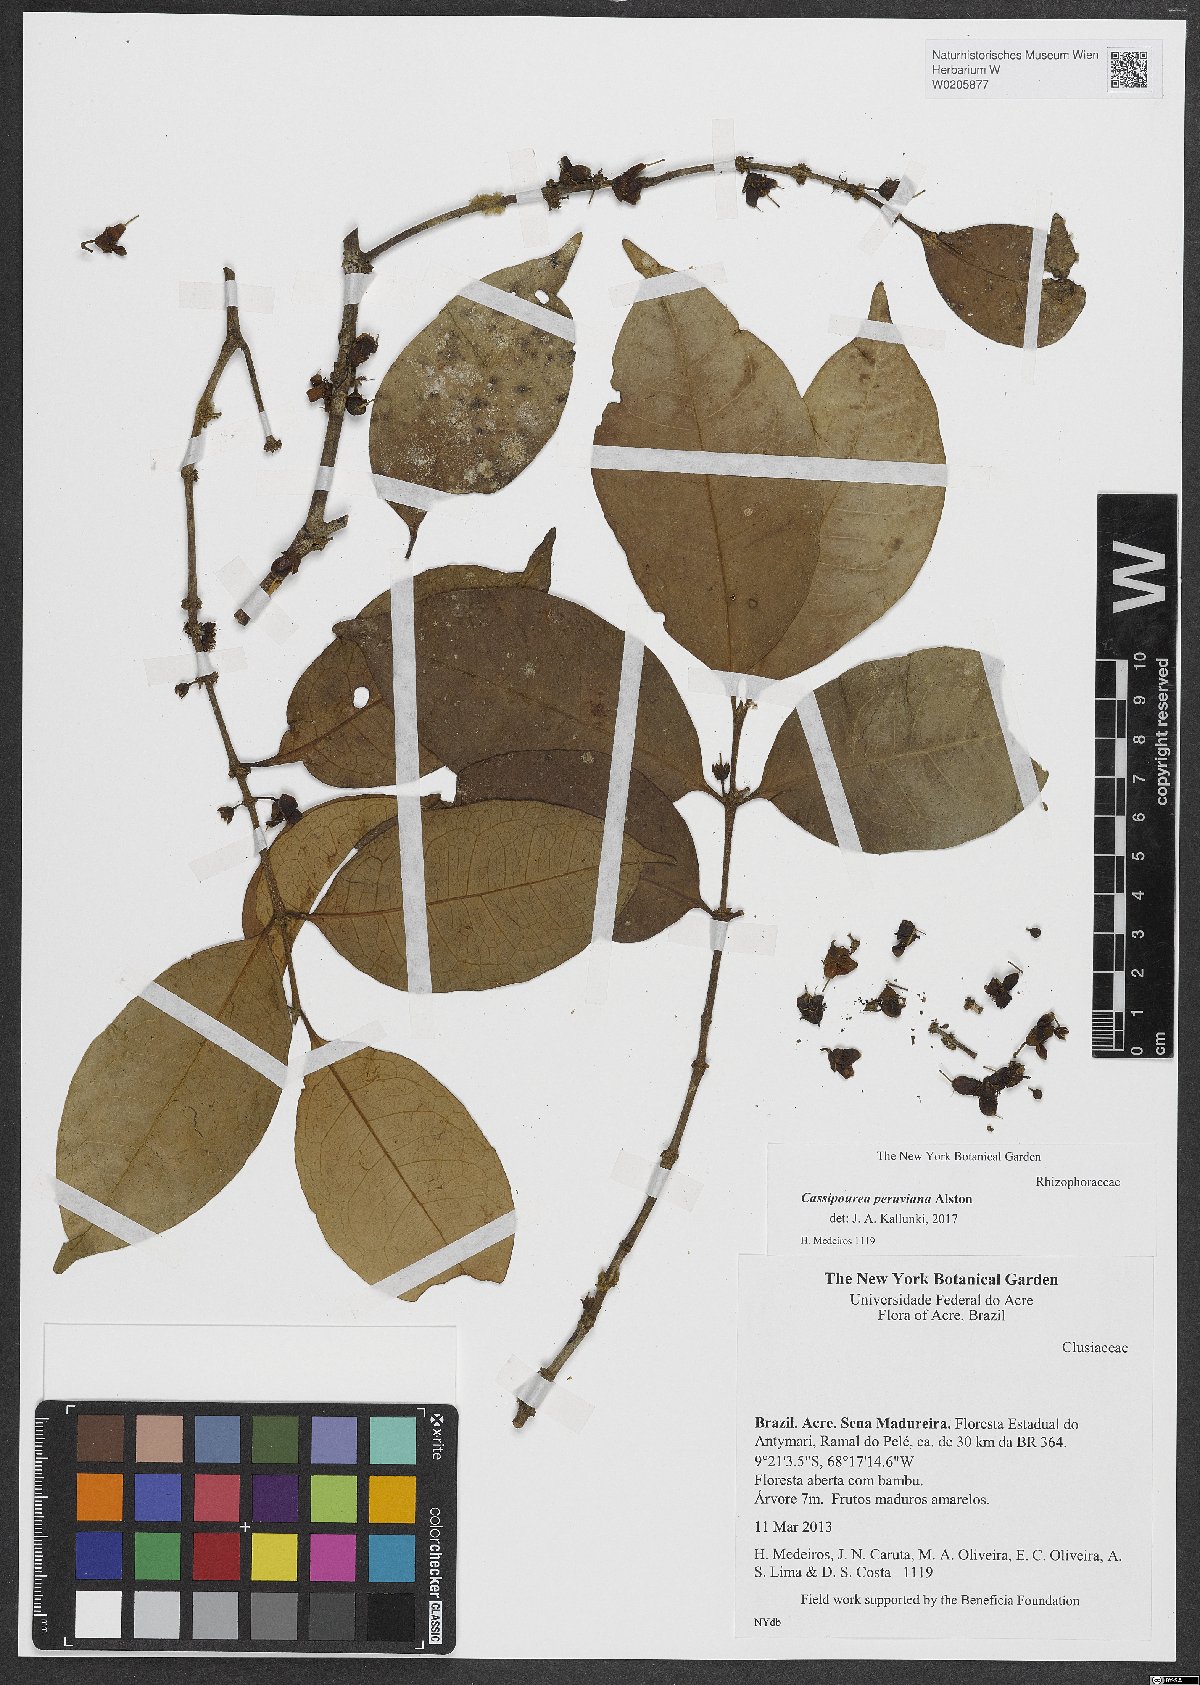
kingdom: Plantae
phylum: Tracheophyta
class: Magnoliopsida
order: Malpighiales
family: Rhizophoraceae
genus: Cassipourea
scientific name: Cassipourea peruviana
